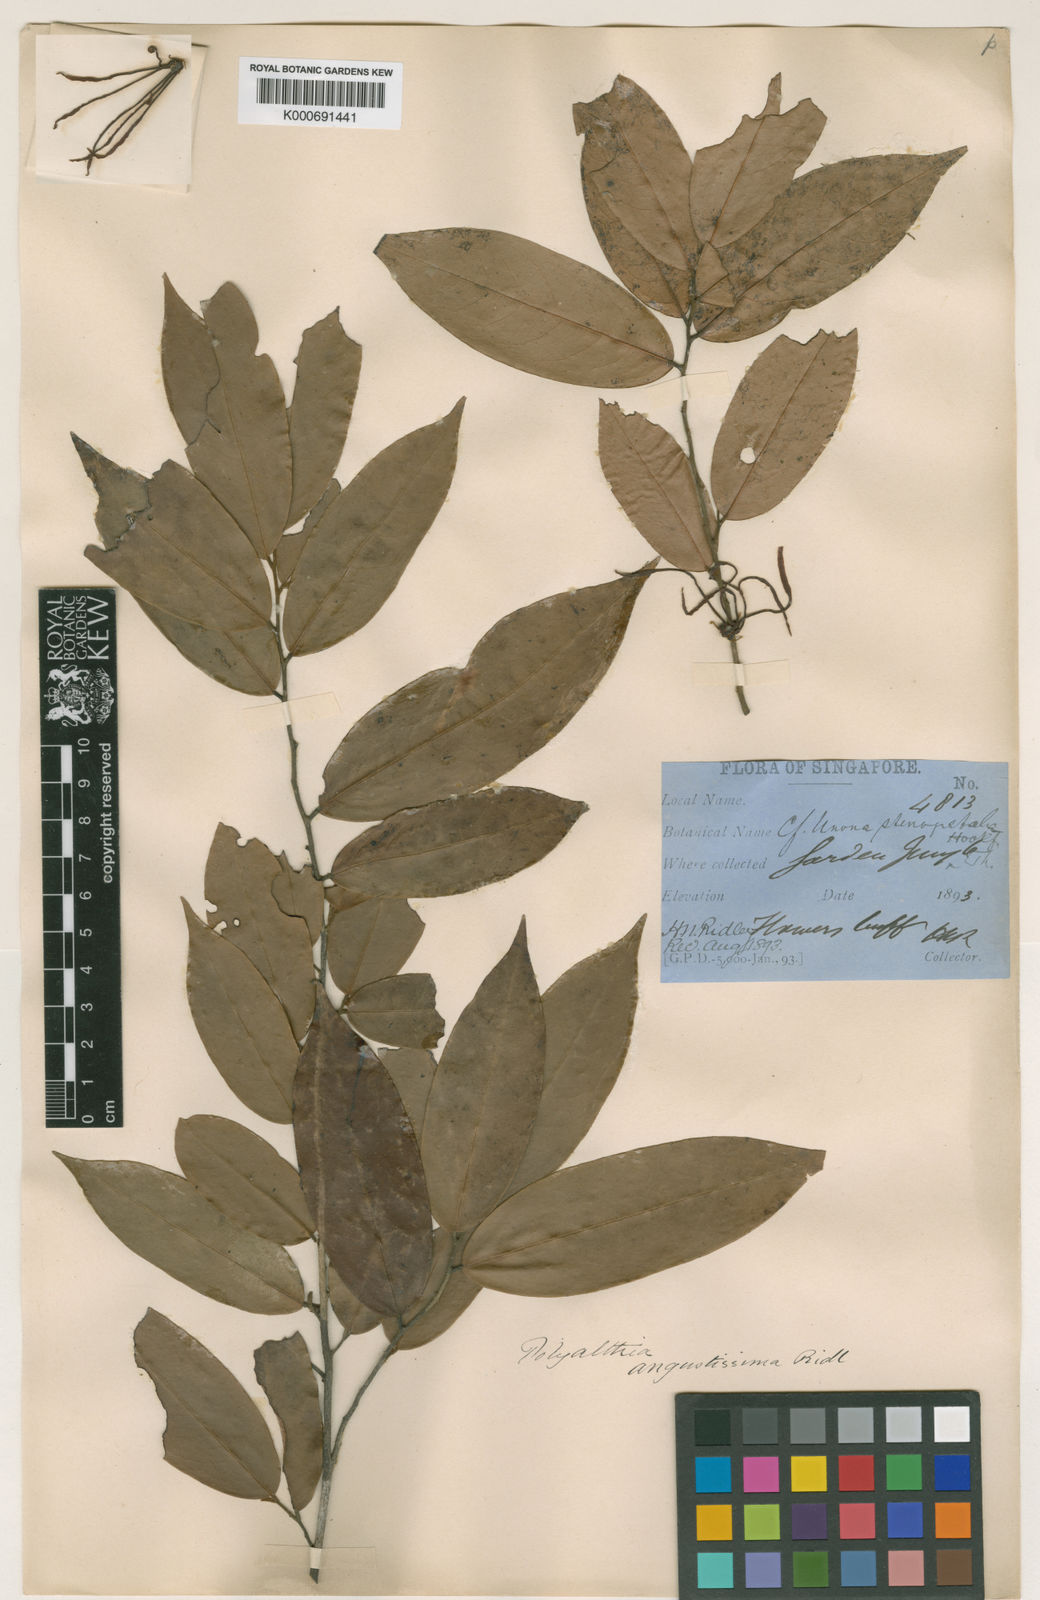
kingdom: Plantae
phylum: Tracheophyta
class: Magnoliopsida
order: Magnoliales
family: Annonaceae
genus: Polyalthia
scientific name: Polyalthia angustissima
